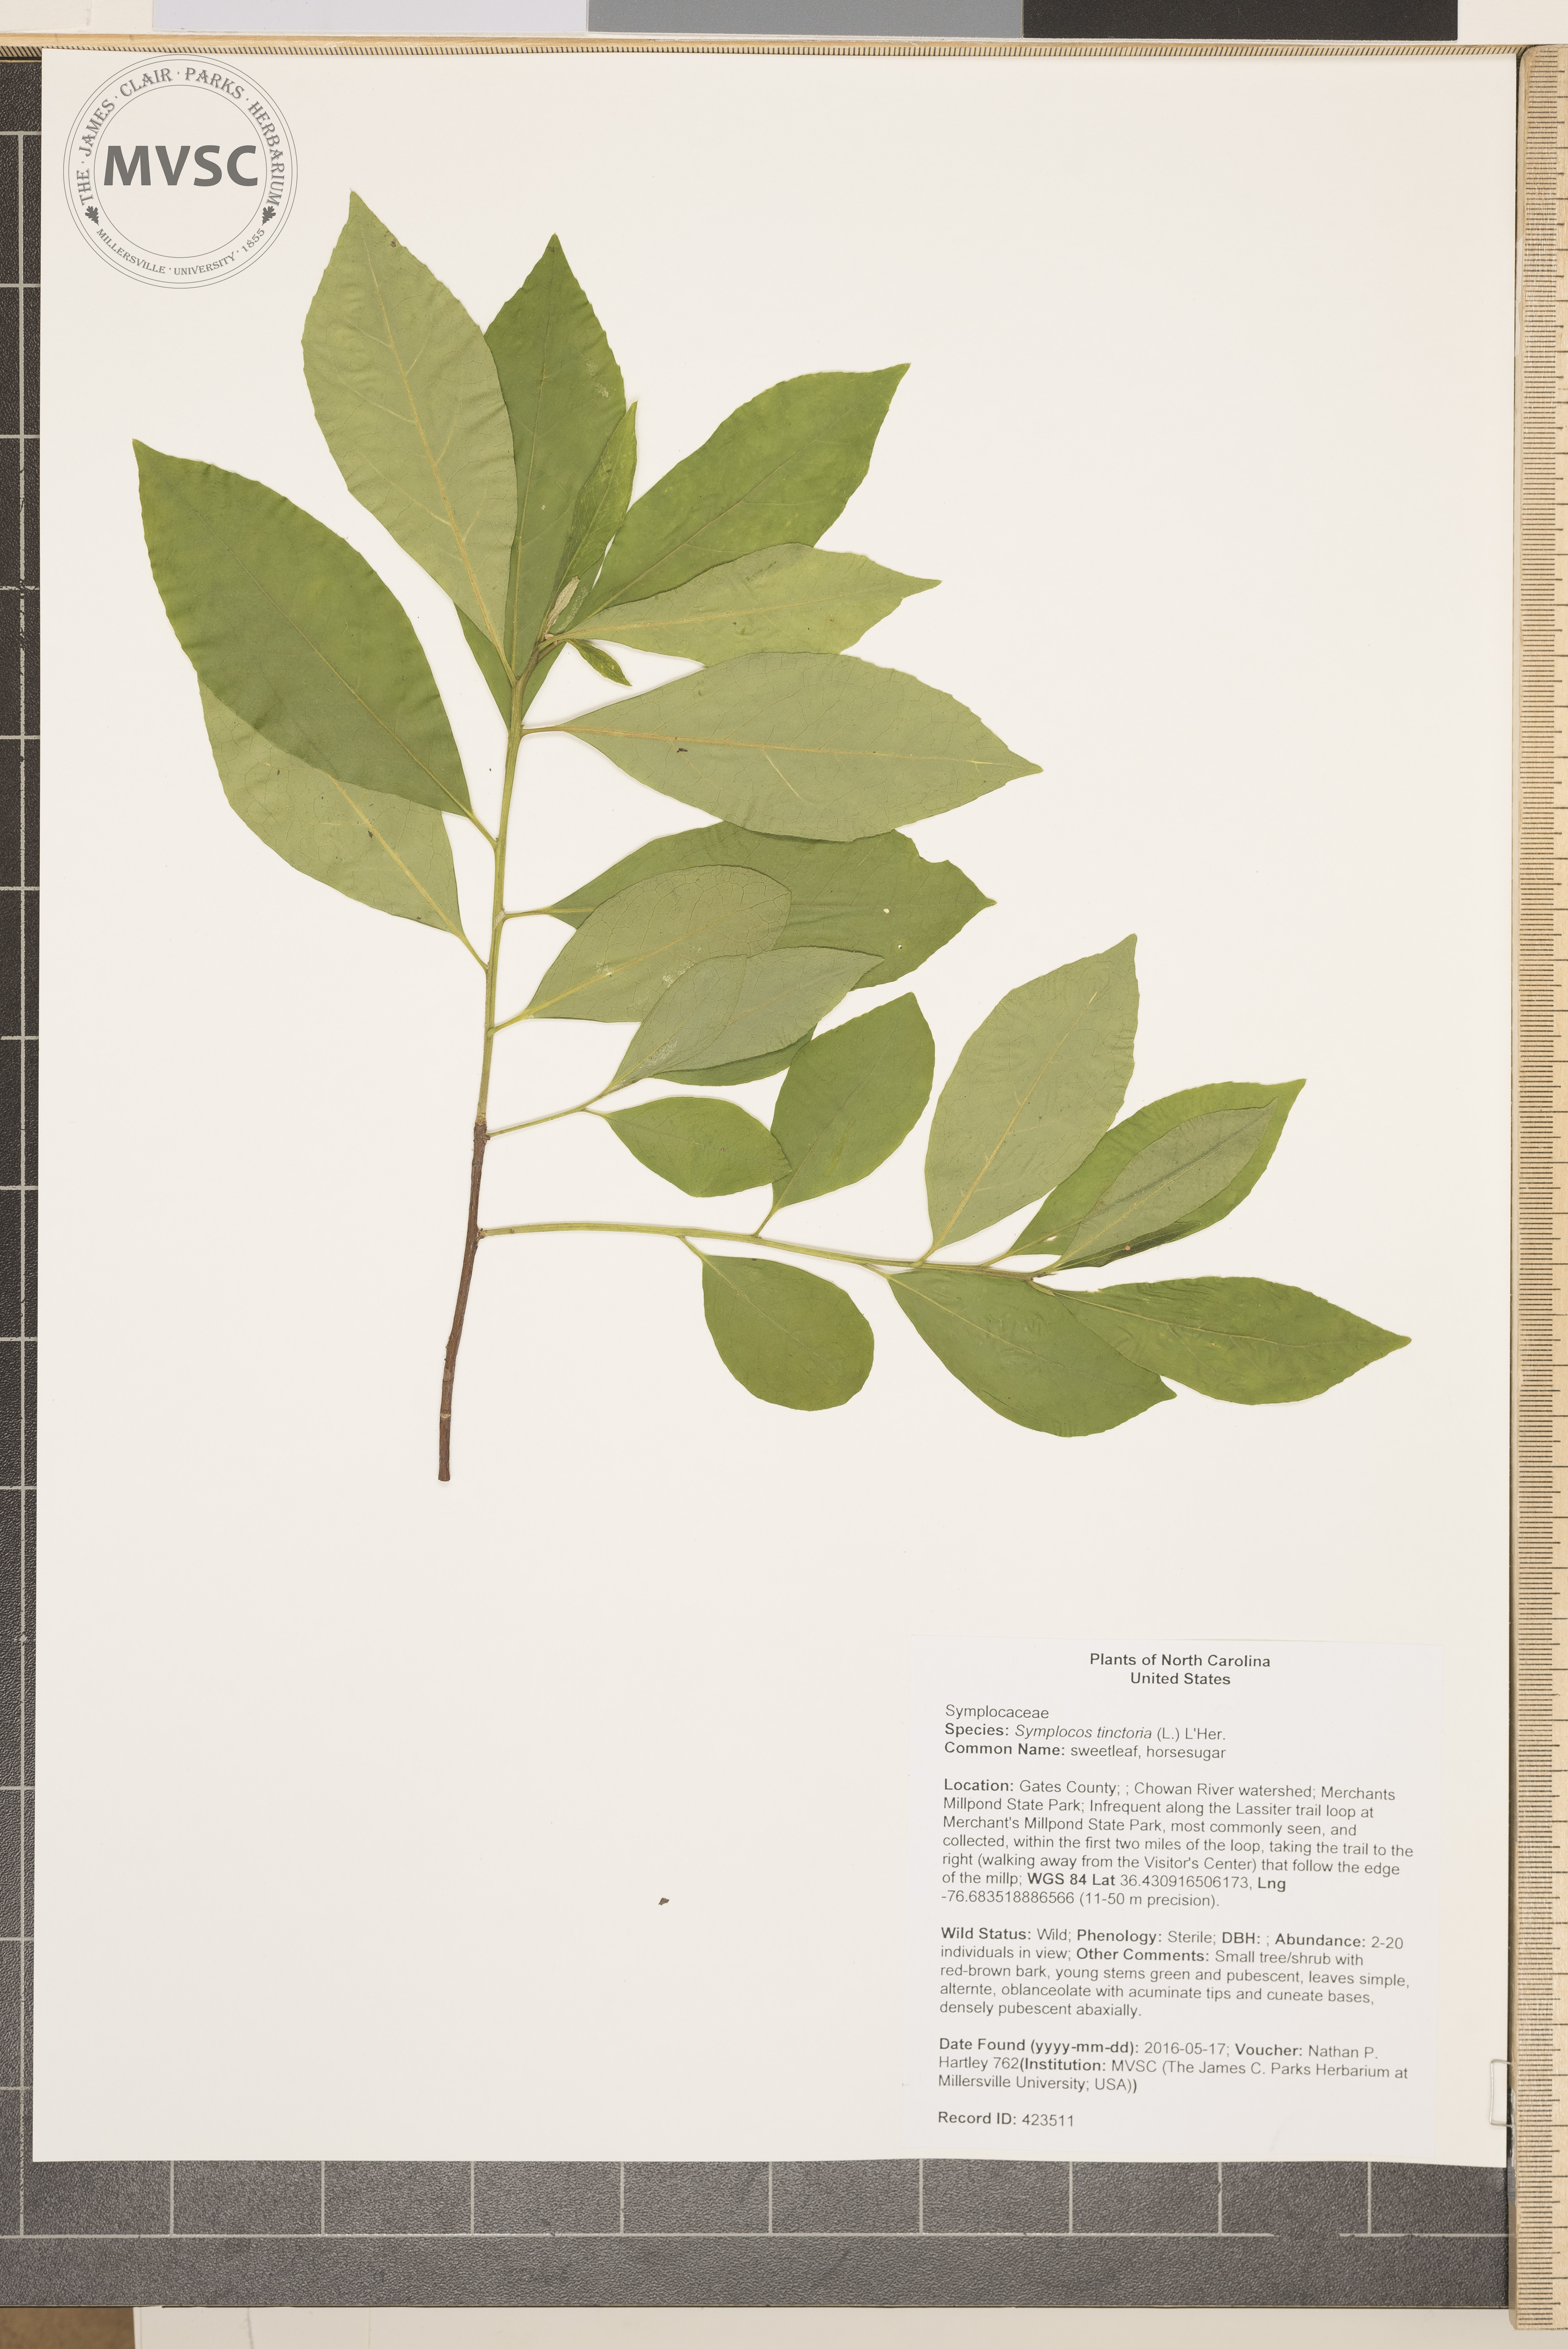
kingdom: Plantae
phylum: Tracheophyta
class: Magnoliopsida
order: Ericales
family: Symplocaceae
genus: Symplocos
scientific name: Symplocos tinctoria
